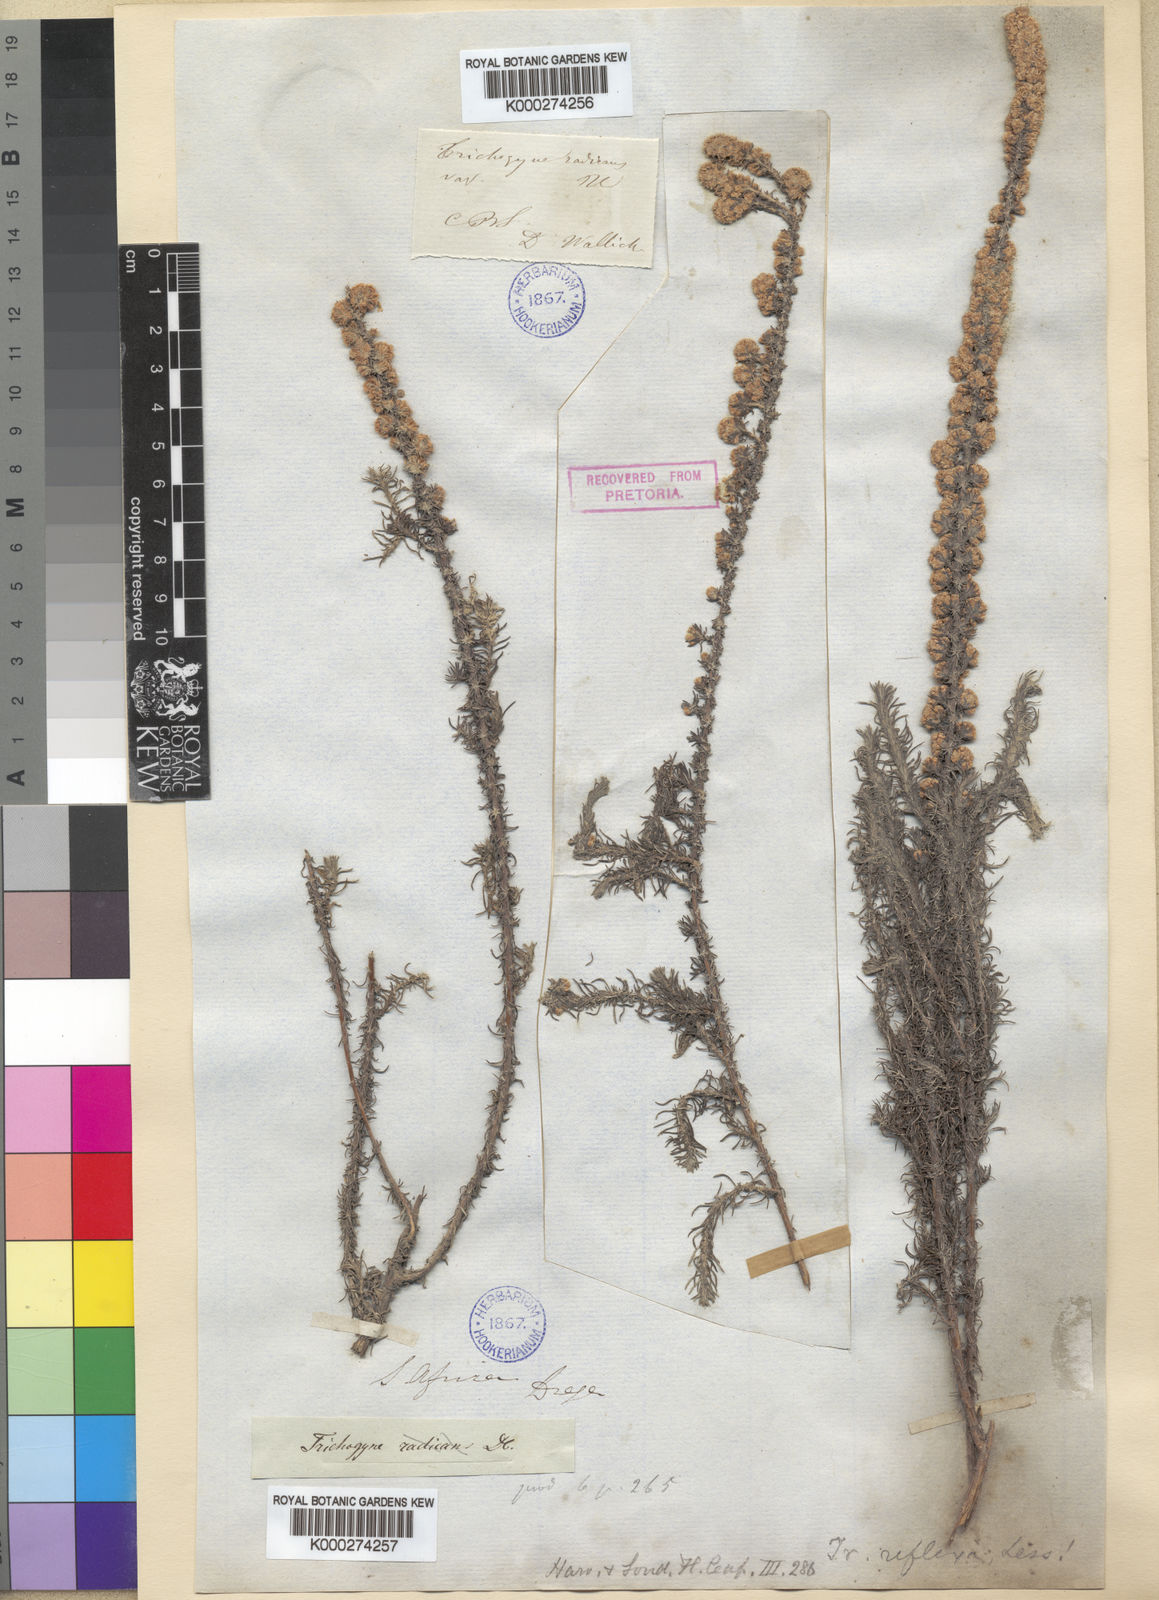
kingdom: Plantae
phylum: Tracheophyta
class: Magnoliopsida
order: Asterales
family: Asteraceae
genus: Ifloga
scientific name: Ifloga repens
